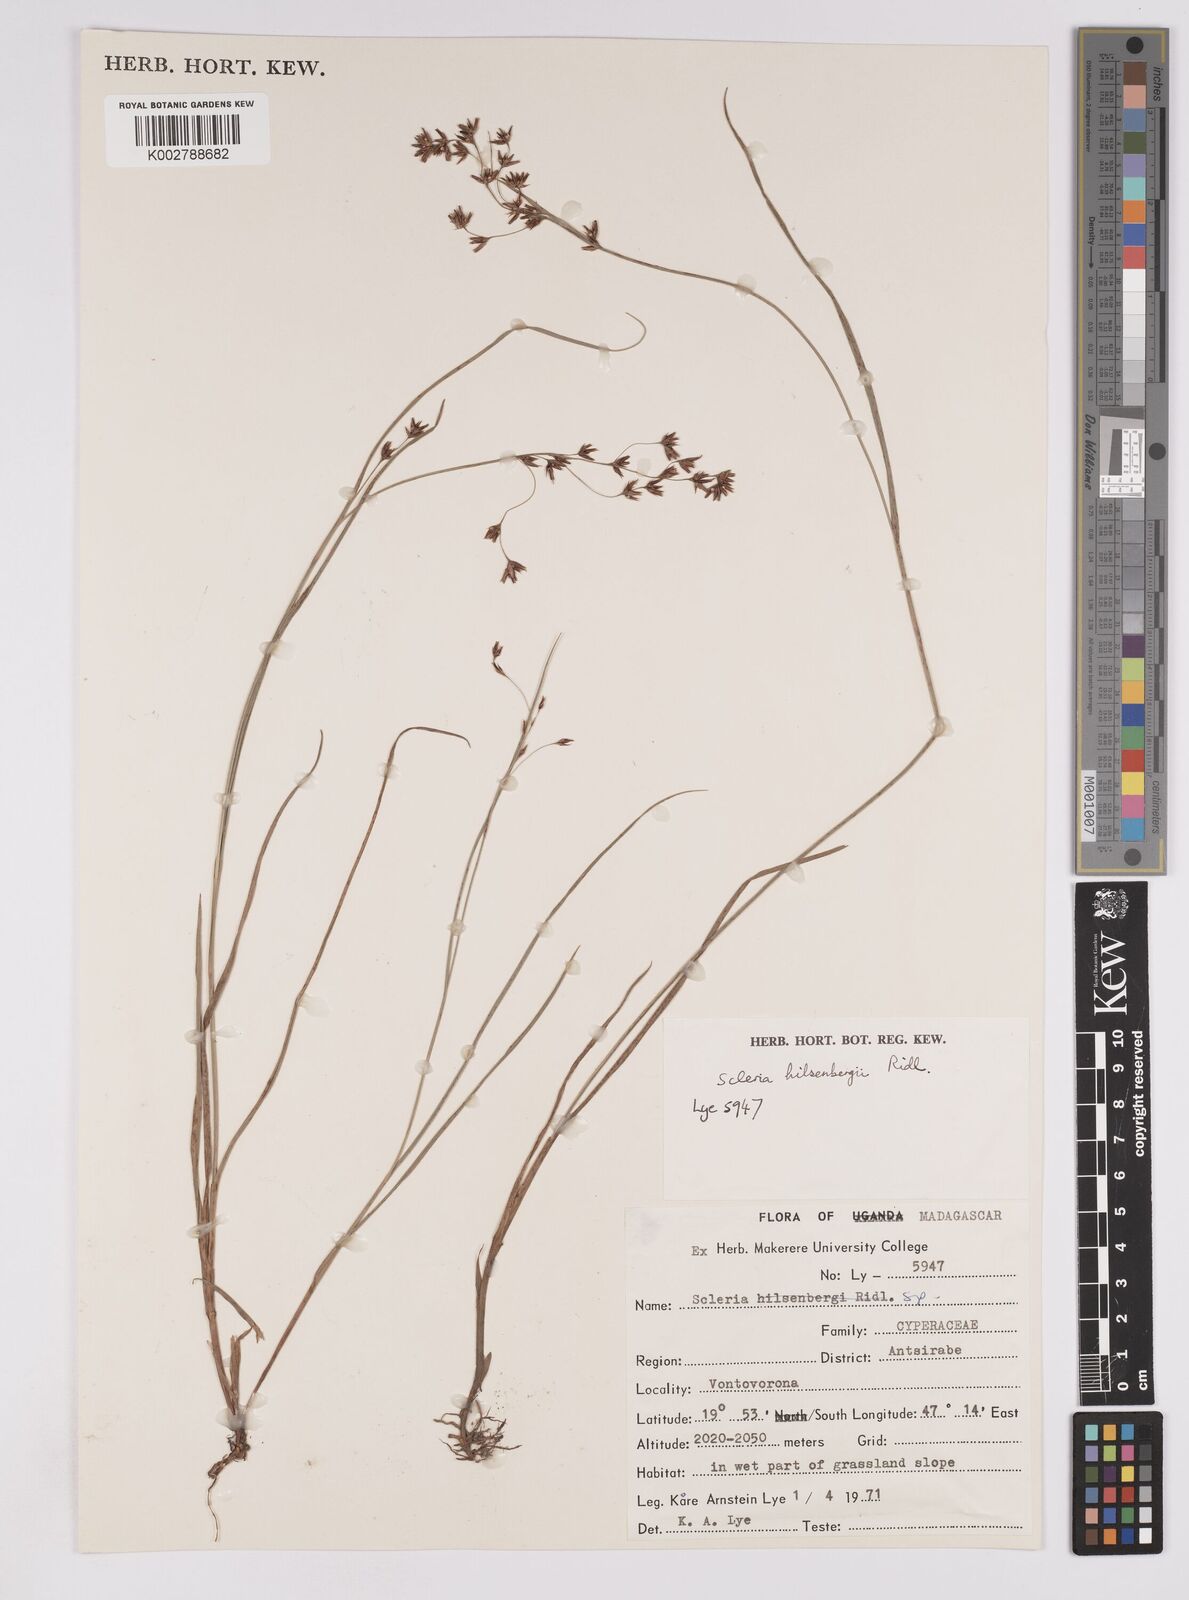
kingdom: Plantae
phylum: Tracheophyta
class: Liliopsida
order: Poales
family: Cyperaceae
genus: Scleria
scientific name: Scleria
